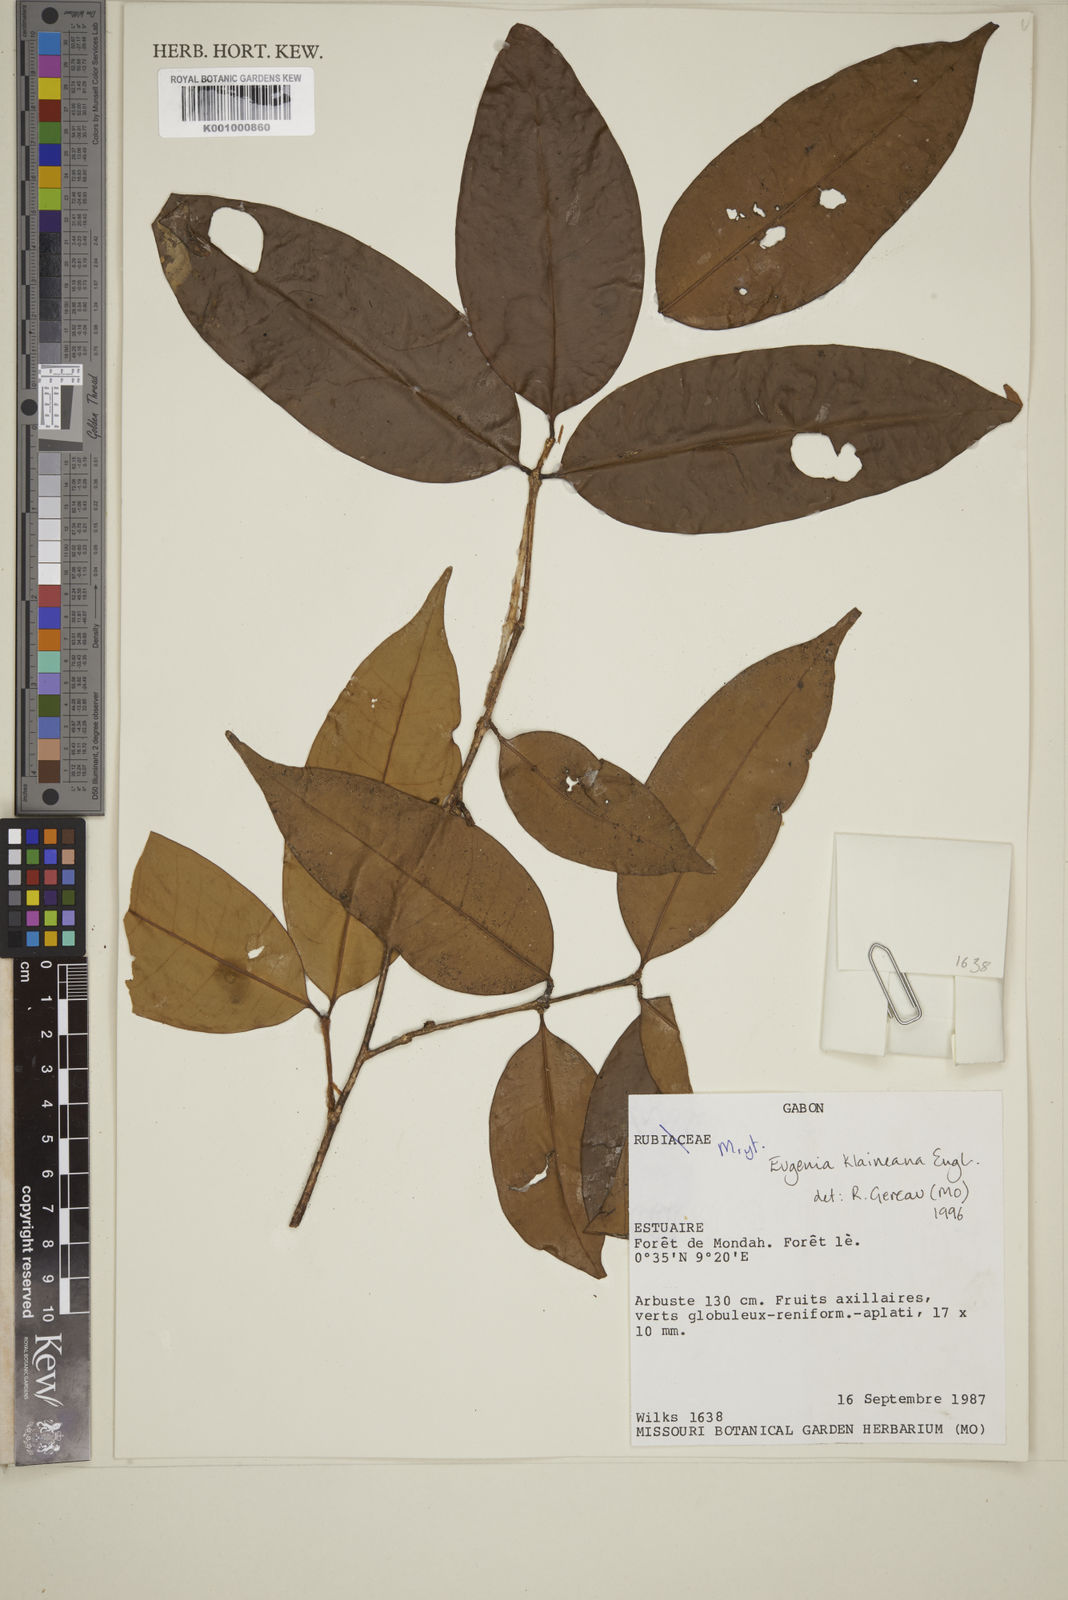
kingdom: Plantae
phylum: Tracheophyta
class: Magnoliopsida
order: Myrtales
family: Myrtaceae
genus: Eugenia
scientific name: Eugenia klaineana
